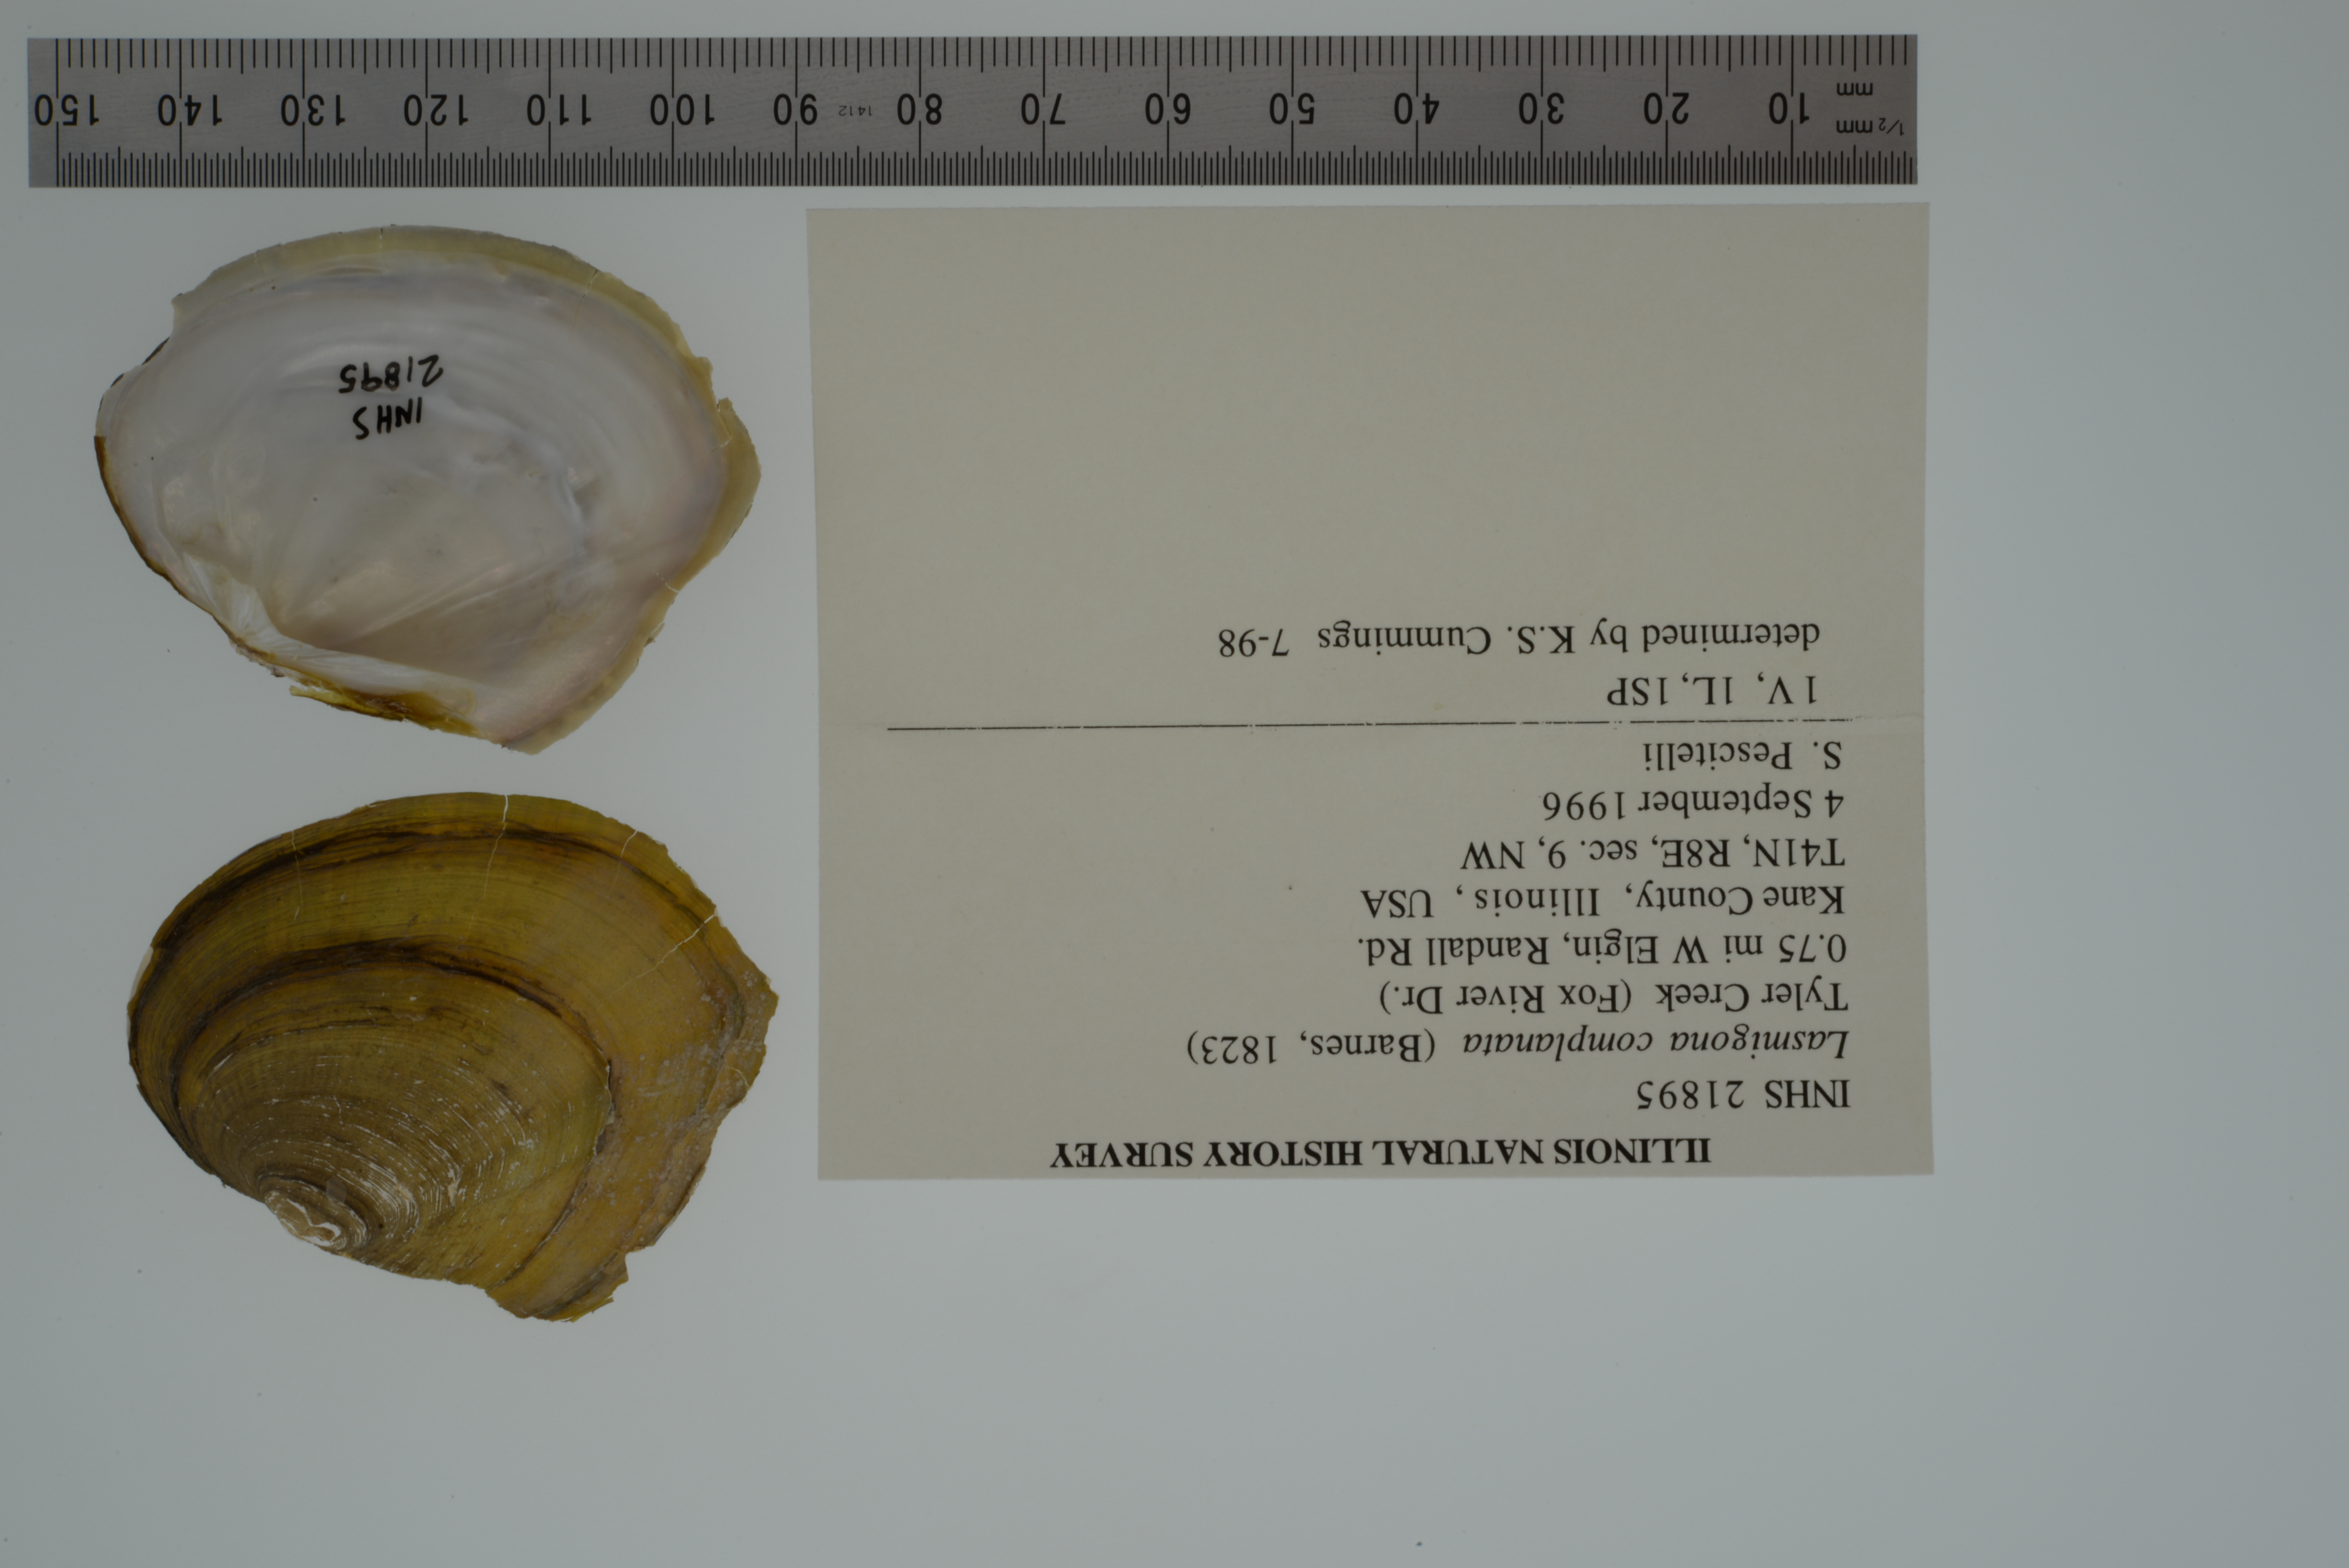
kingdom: Animalia
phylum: Mollusca
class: Bivalvia
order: Unionida
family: Unionidae
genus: Lasmigona
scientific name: Lasmigona complanata
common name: White heelsplitter
